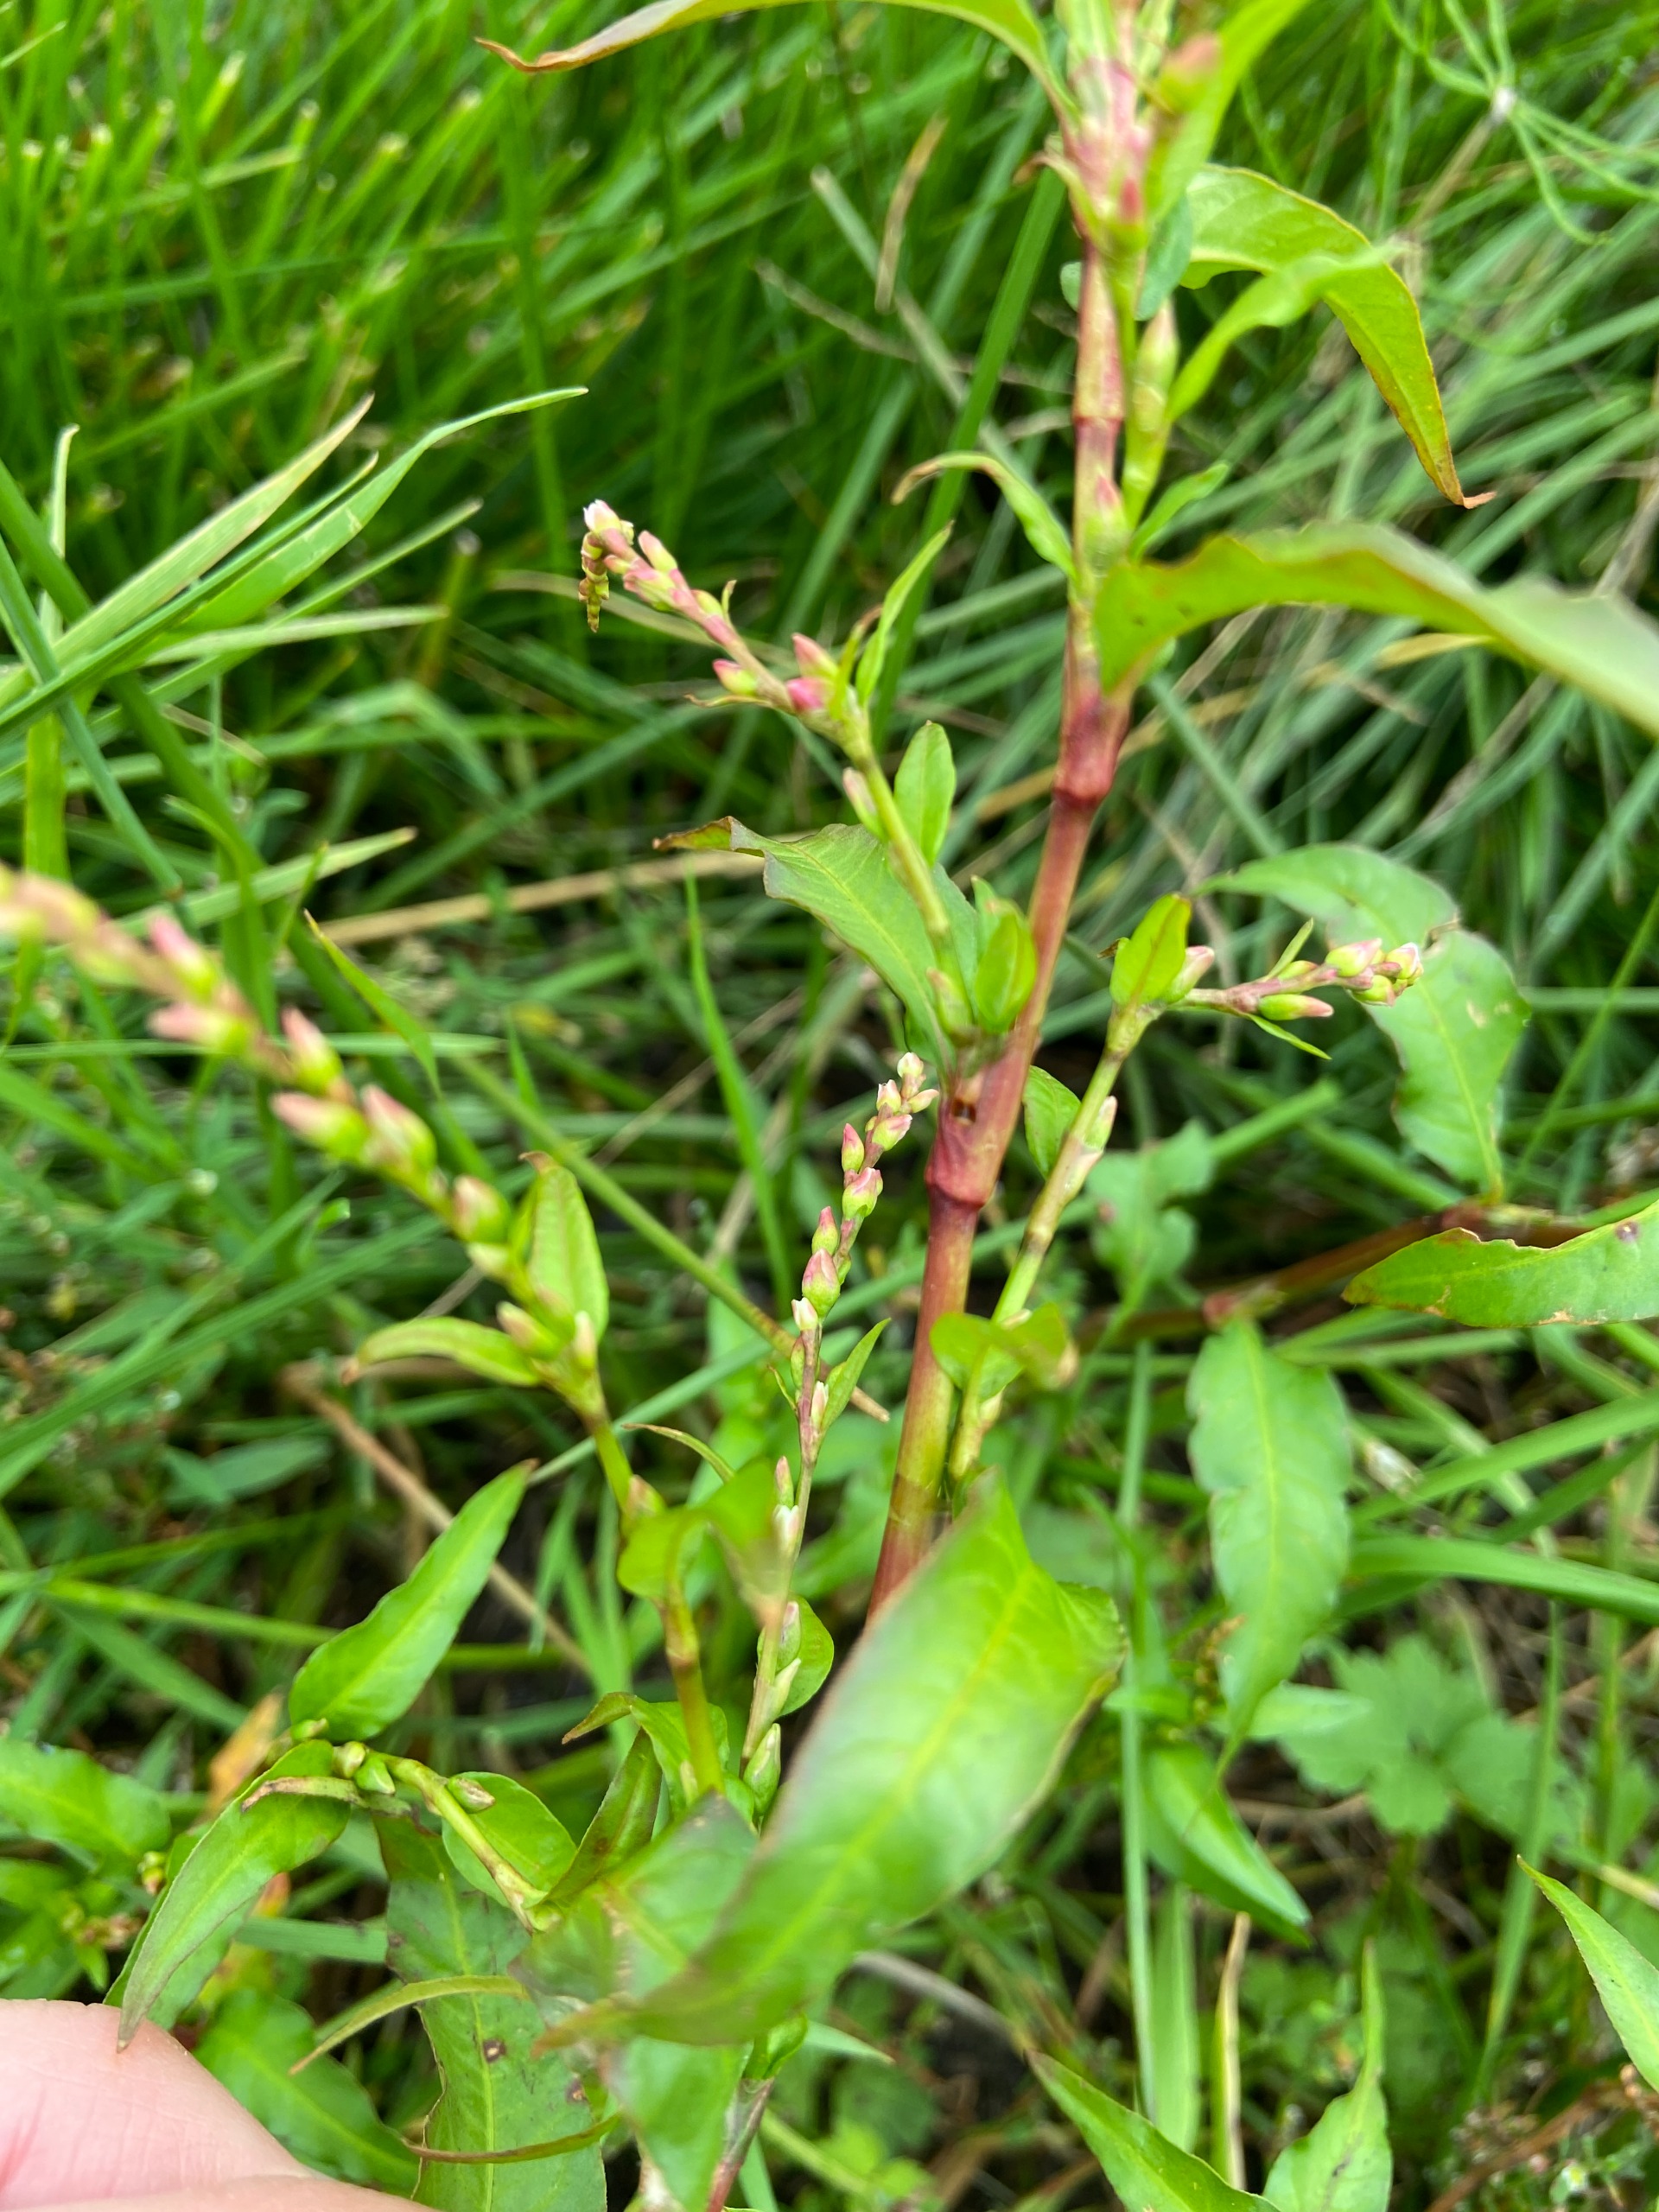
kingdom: Plantae
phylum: Tracheophyta
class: Magnoliopsida
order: Caryophyllales
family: Polygonaceae
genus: Persicaria
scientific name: Persicaria hydropiper
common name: Bidende pileurt
